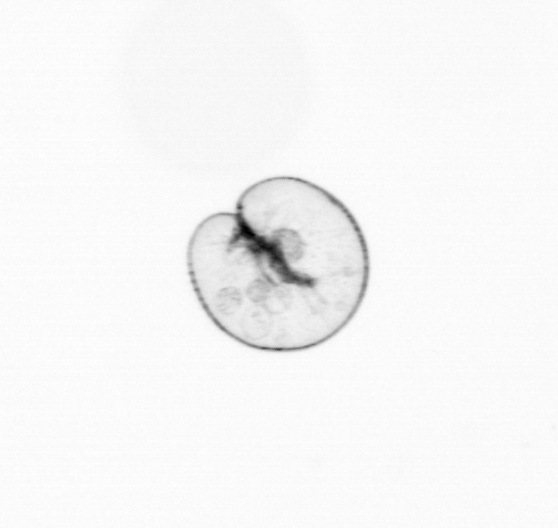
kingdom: Chromista
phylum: Myzozoa
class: Dinophyceae
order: Noctilucales
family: Noctilucaceae
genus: Noctiluca
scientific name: Noctiluca scintillans
